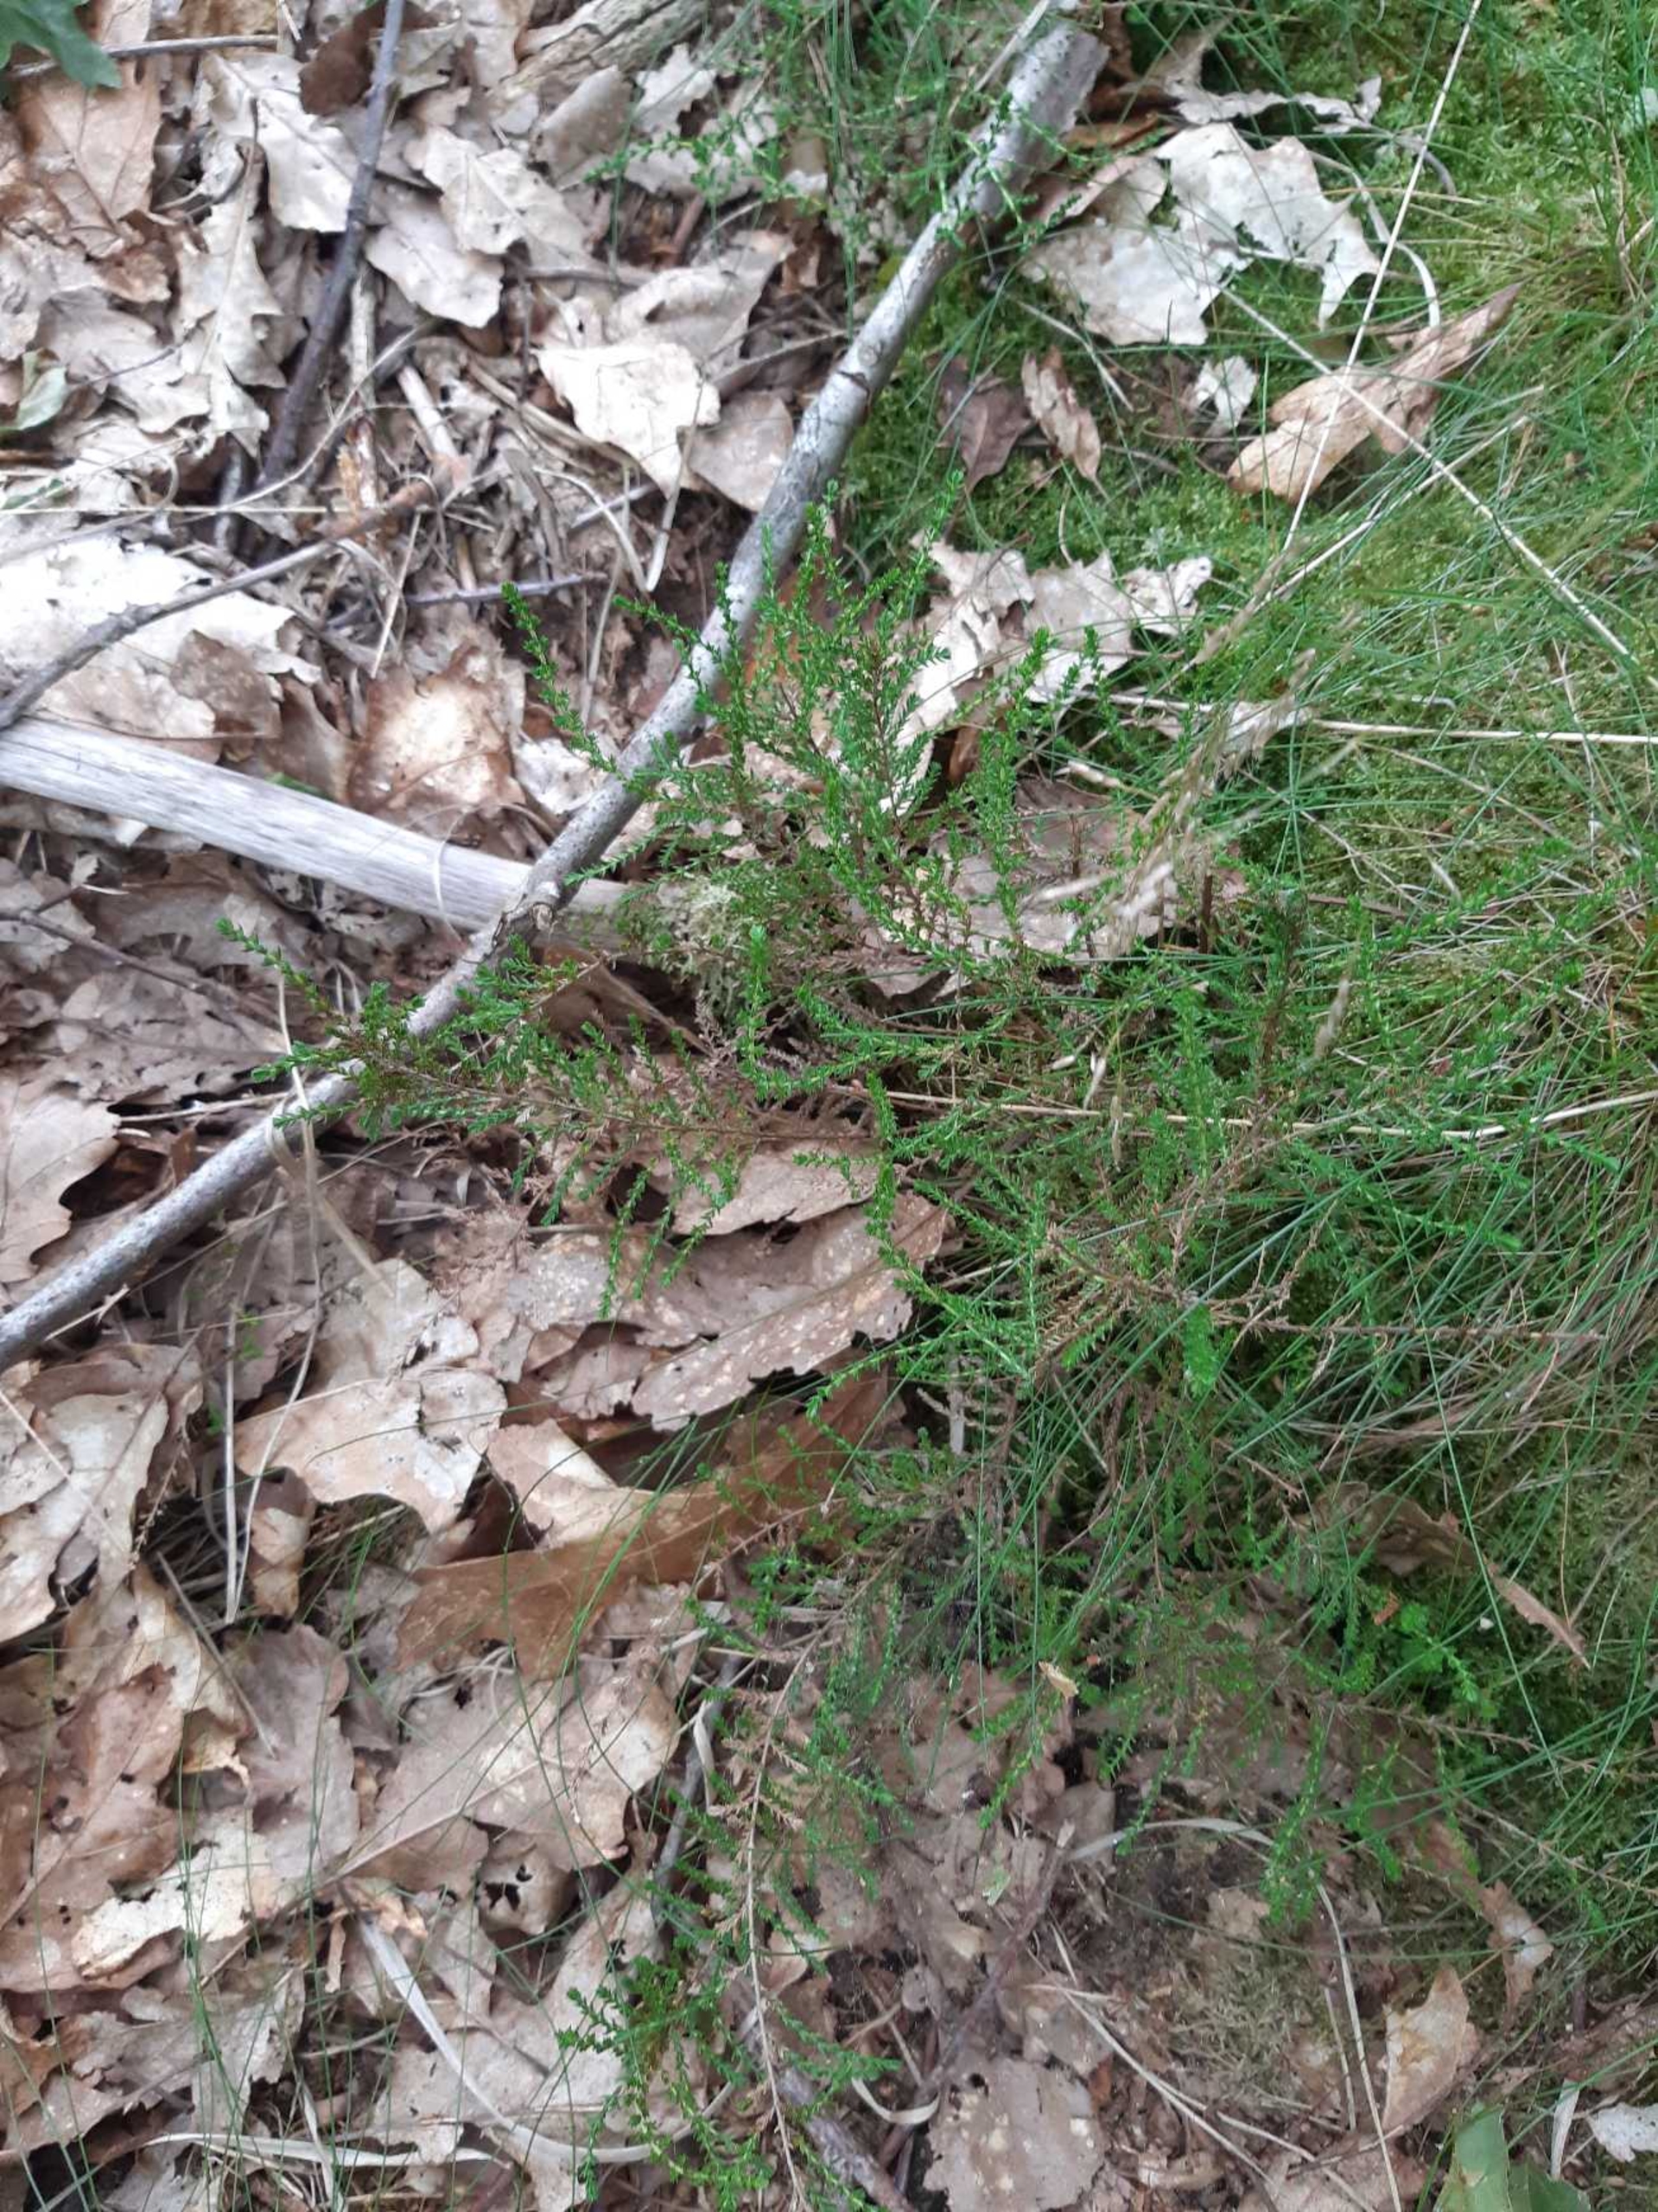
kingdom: Plantae
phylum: Tracheophyta
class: Magnoliopsida
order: Ericales
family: Ericaceae
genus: Calluna
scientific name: Calluna vulgaris
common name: Hedelyng
